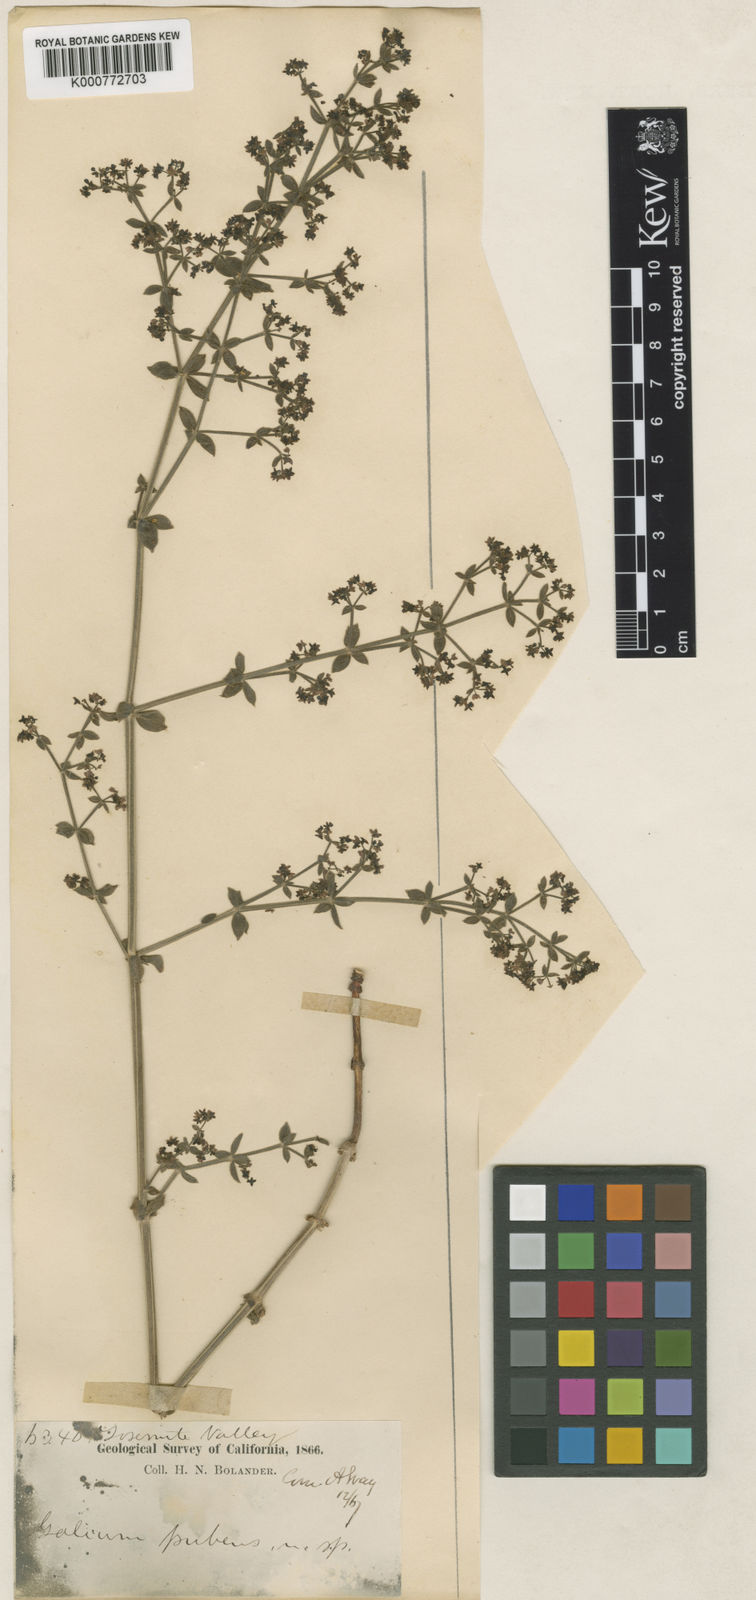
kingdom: Plantae
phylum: Tracheophyta
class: Magnoliopsida
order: Gentianales
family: Rubiaceae
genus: Galium
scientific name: Galium bolanderi
